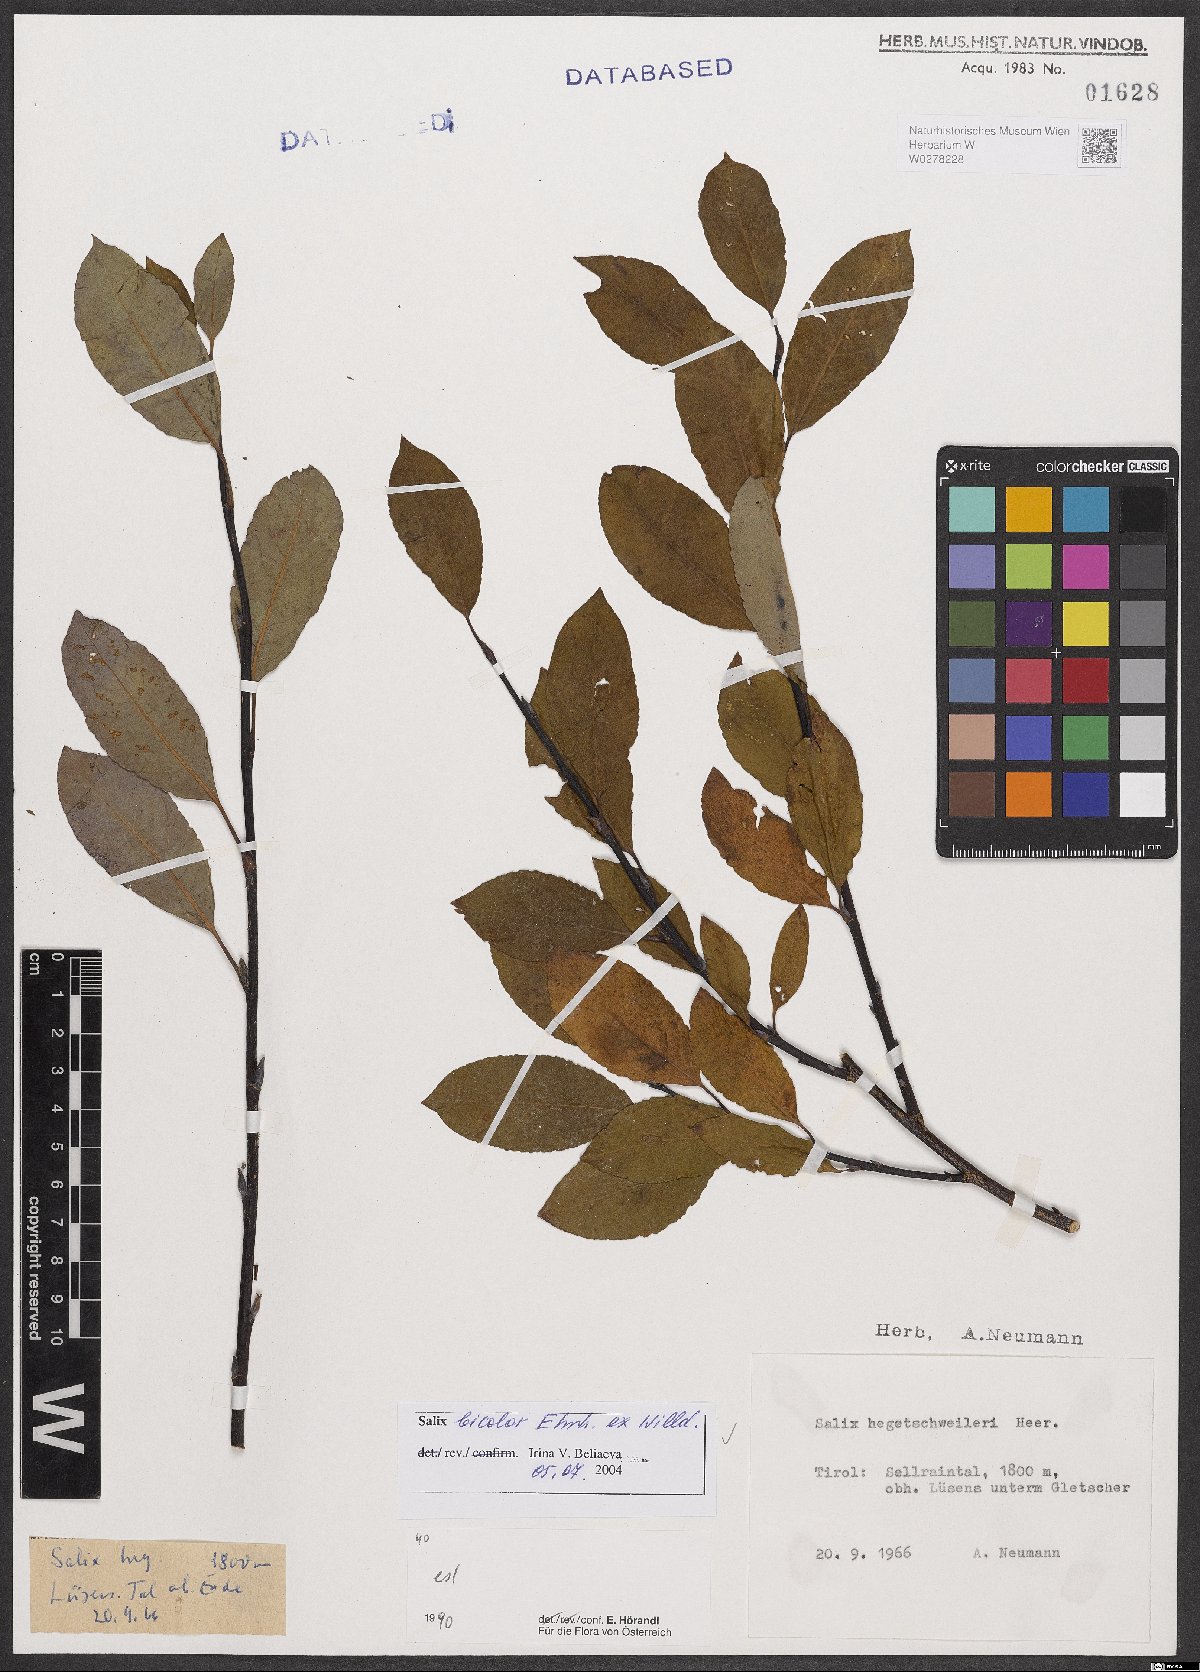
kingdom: Plantae
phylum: Tracheophyta
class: Magnoliopsida
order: Malpighiales
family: Salicaceae
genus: Salix
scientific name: Salix bicolor
